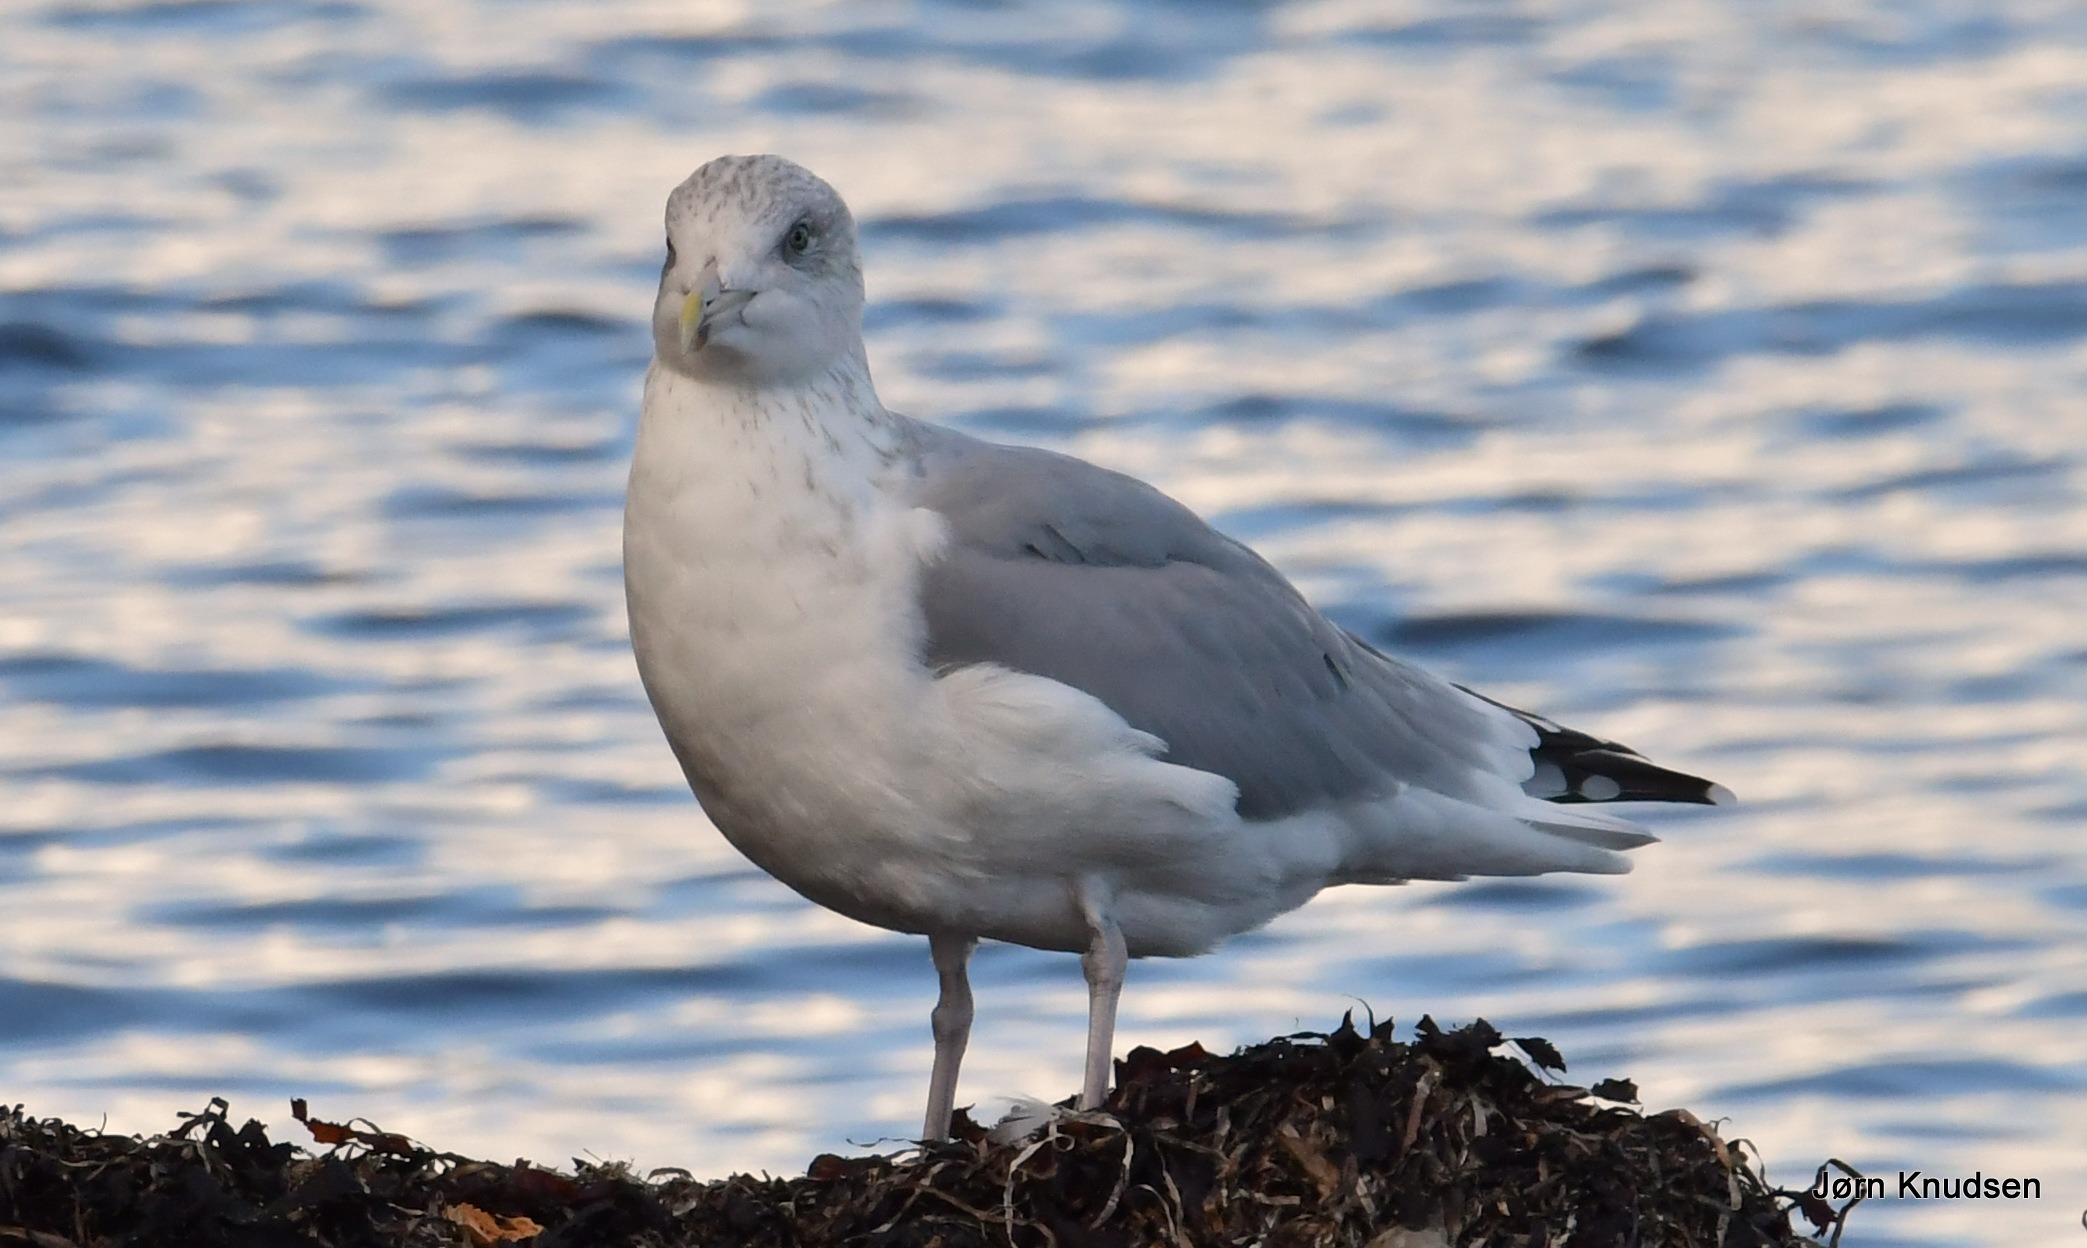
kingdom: Animalia
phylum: Chordata
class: Aves
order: Charadriiformes
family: Laridae
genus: Larus
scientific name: Larus argentatus
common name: Sølvmåge
